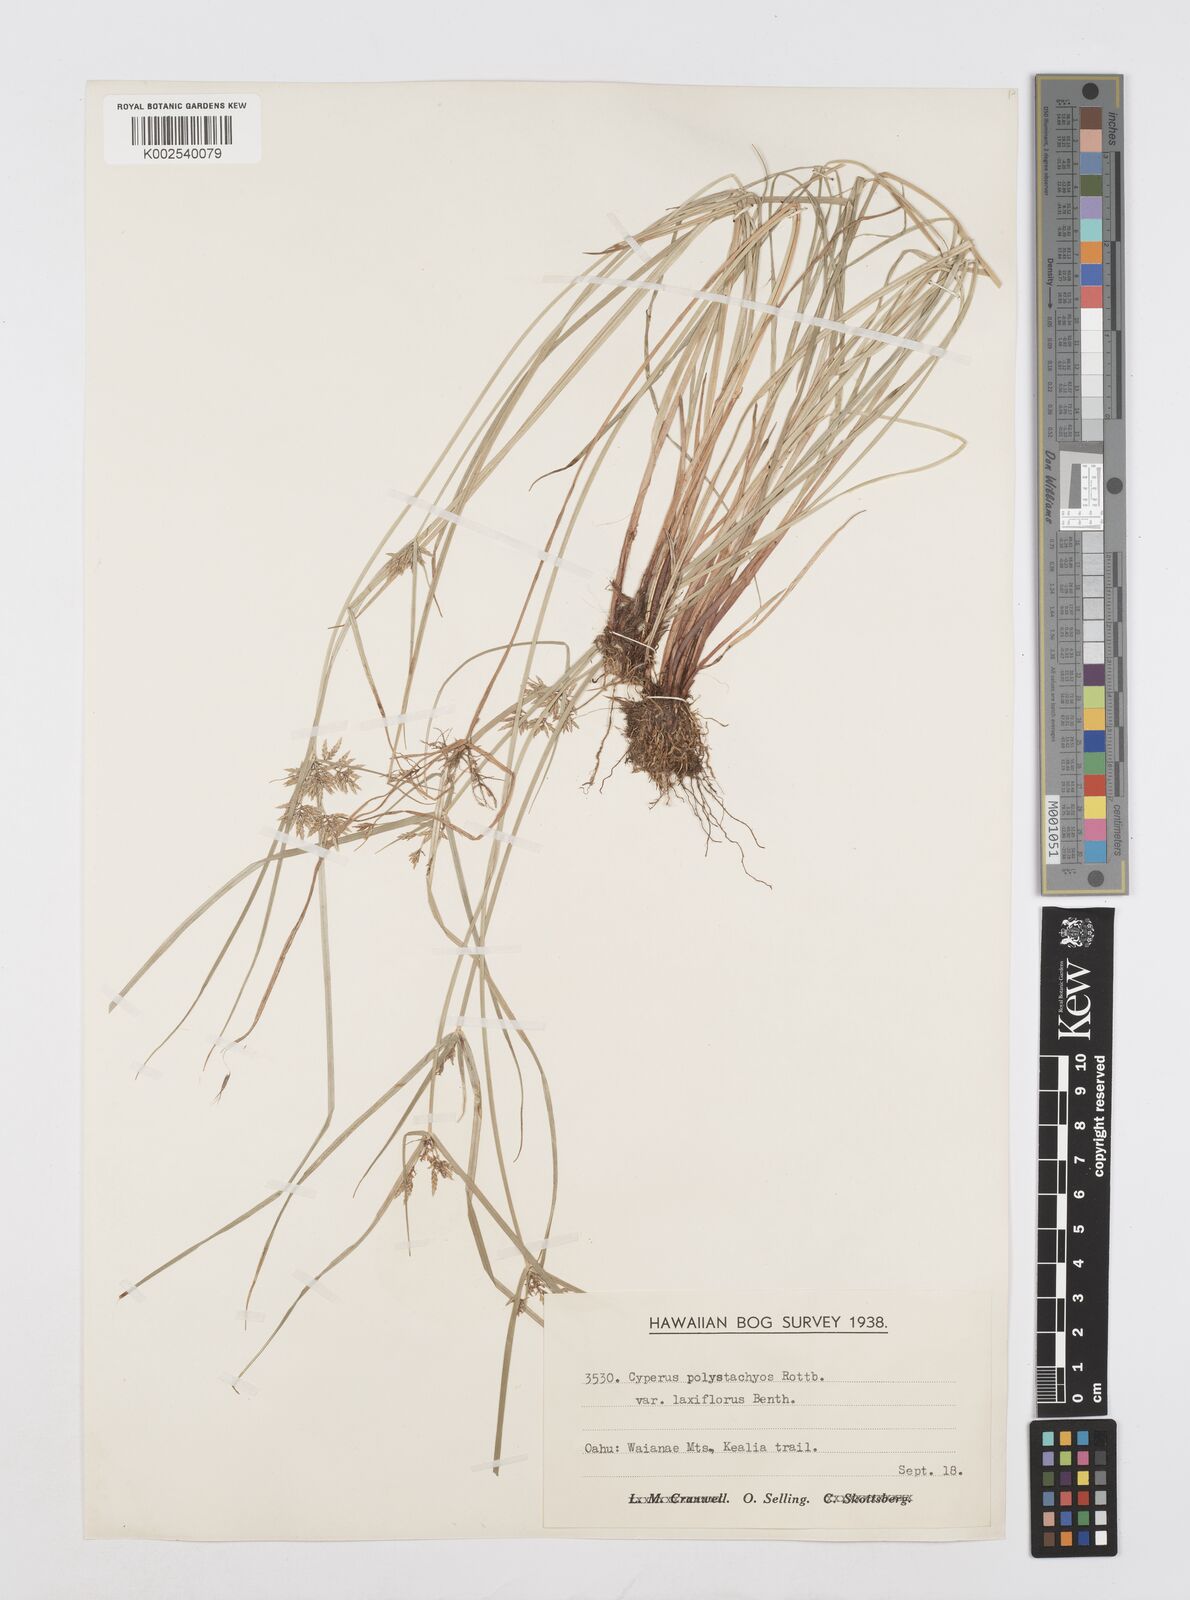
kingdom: Plantae
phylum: Tracheophyta
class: Liliopsida
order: Poales
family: Cyperaceae
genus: Cyperus
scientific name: Cyperus polystachyos
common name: Bunchy flat sedge
